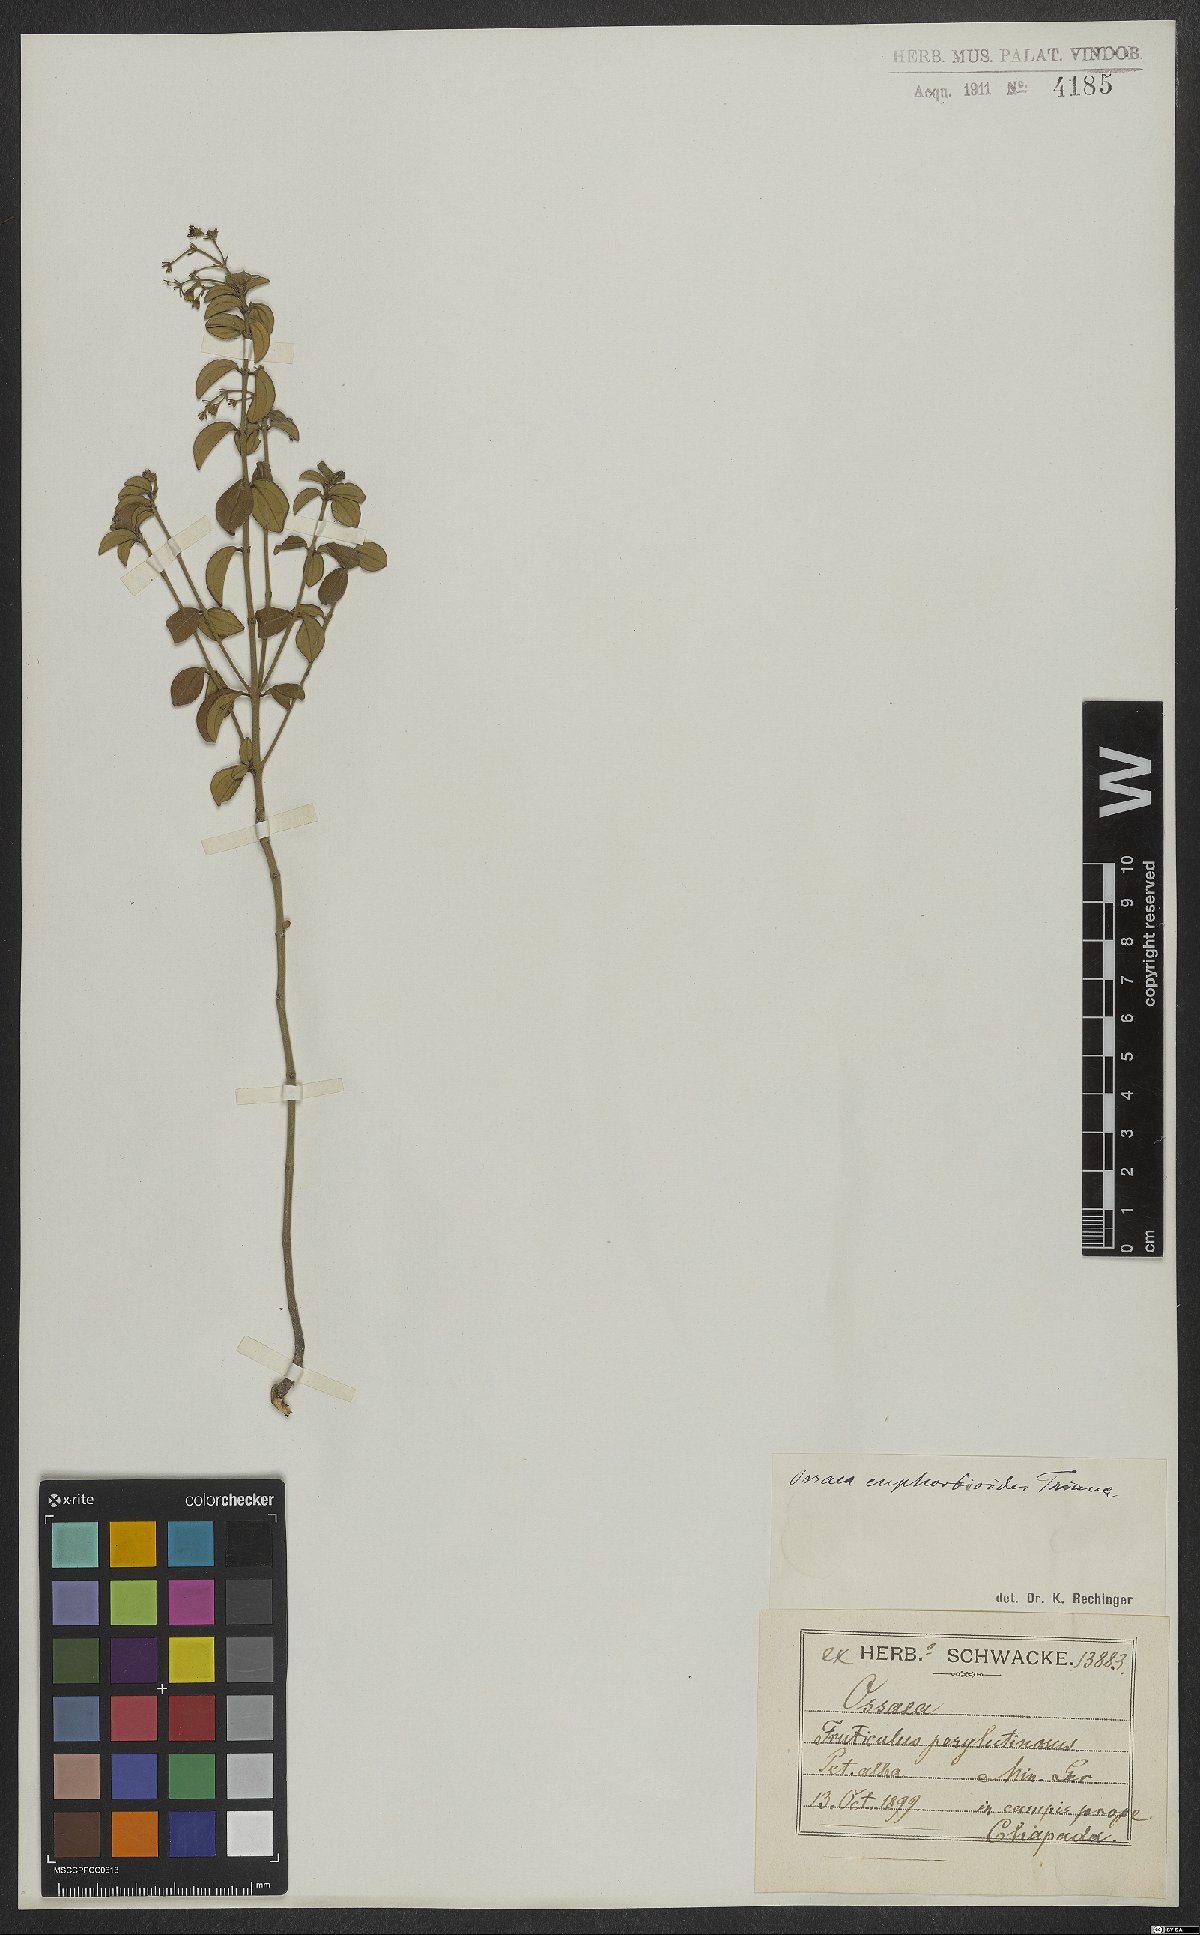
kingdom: Plantae
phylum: Tracheophyta
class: Magnoliopsida
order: Myrtales
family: Melastomataceae
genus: Miconia
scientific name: Miconia euphorbioides
